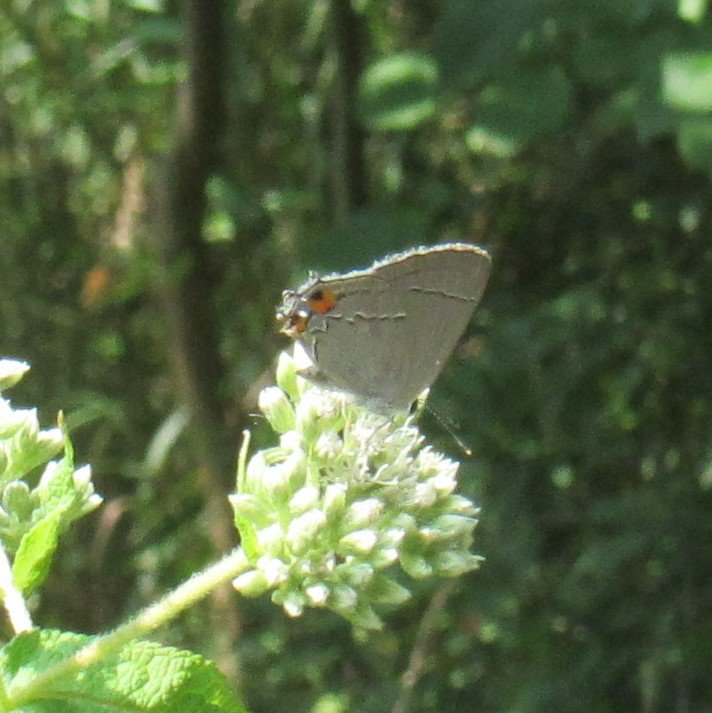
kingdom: Animalia
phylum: Arthropoda
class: Insecta
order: Lepidoptera
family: Lycaenidae
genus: Strymon
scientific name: Strymon melinus
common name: Gray Hairstreak
